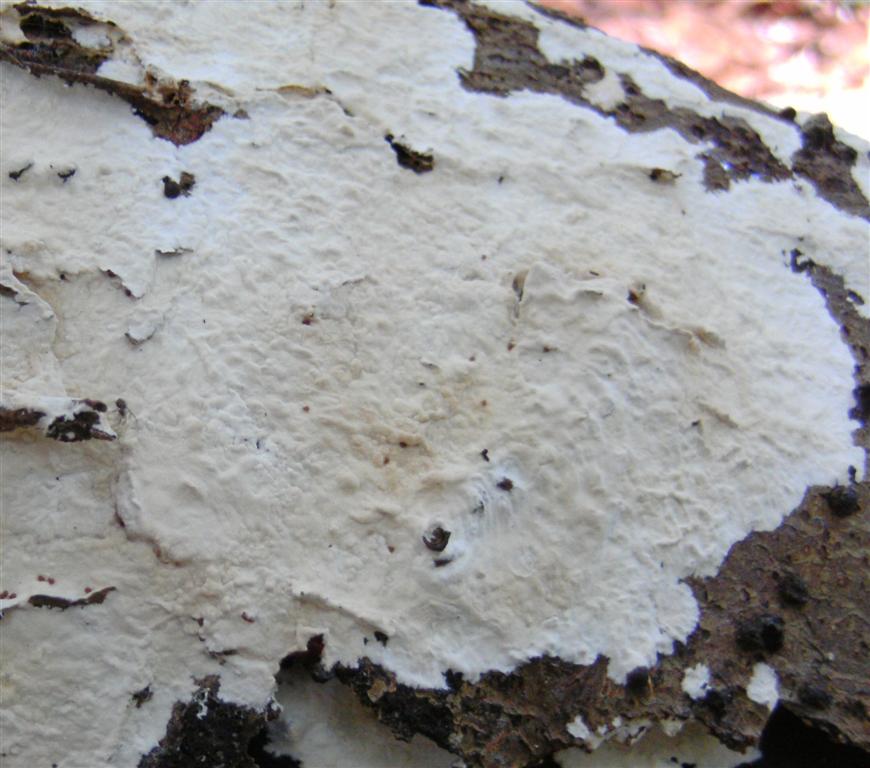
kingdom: Fungi
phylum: Basidiomycota
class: Agaricomycetes
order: Polyporales
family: Phanerochaetaceae
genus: Phanerochaete
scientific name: Phanerochaete sordida
